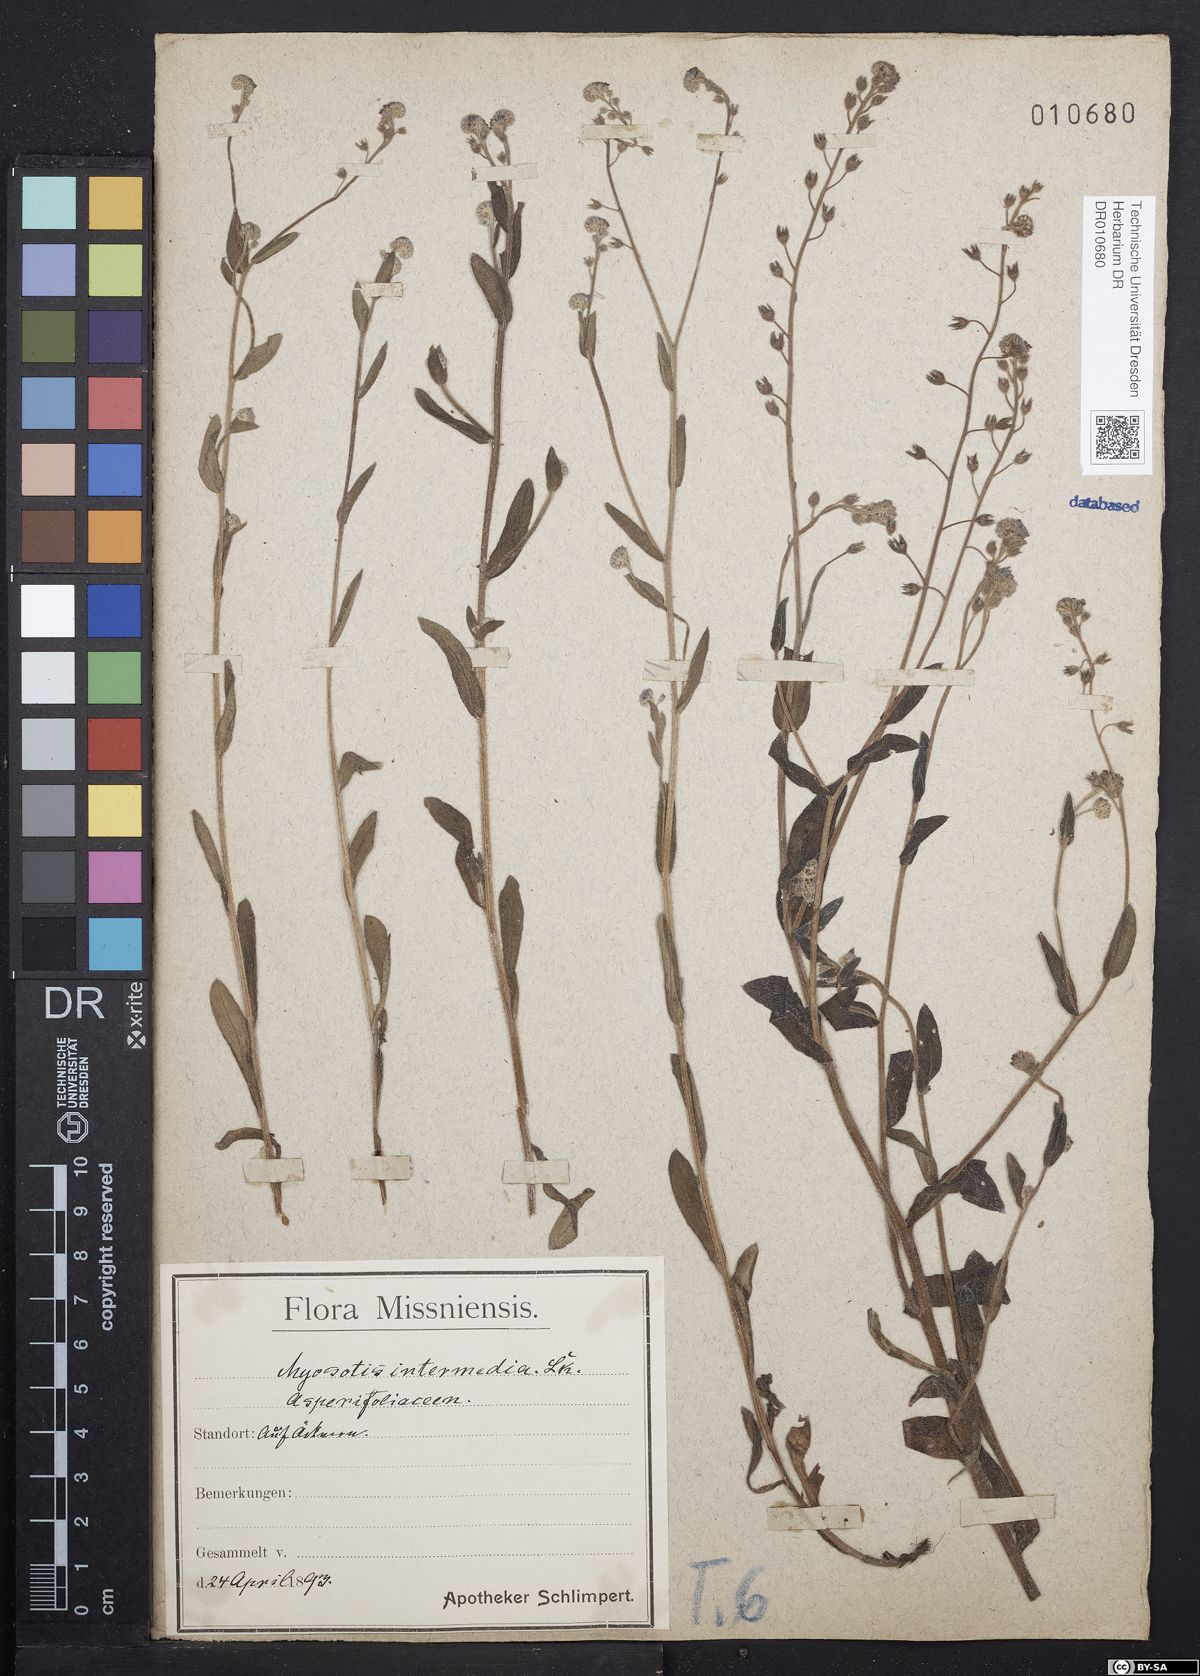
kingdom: Plantae
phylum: Tracheophyta
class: Magnoliopsida
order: Boraginales
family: Boraginaceae
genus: Myosotis
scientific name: Myosotis arvensis
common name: Field forget-me-not
